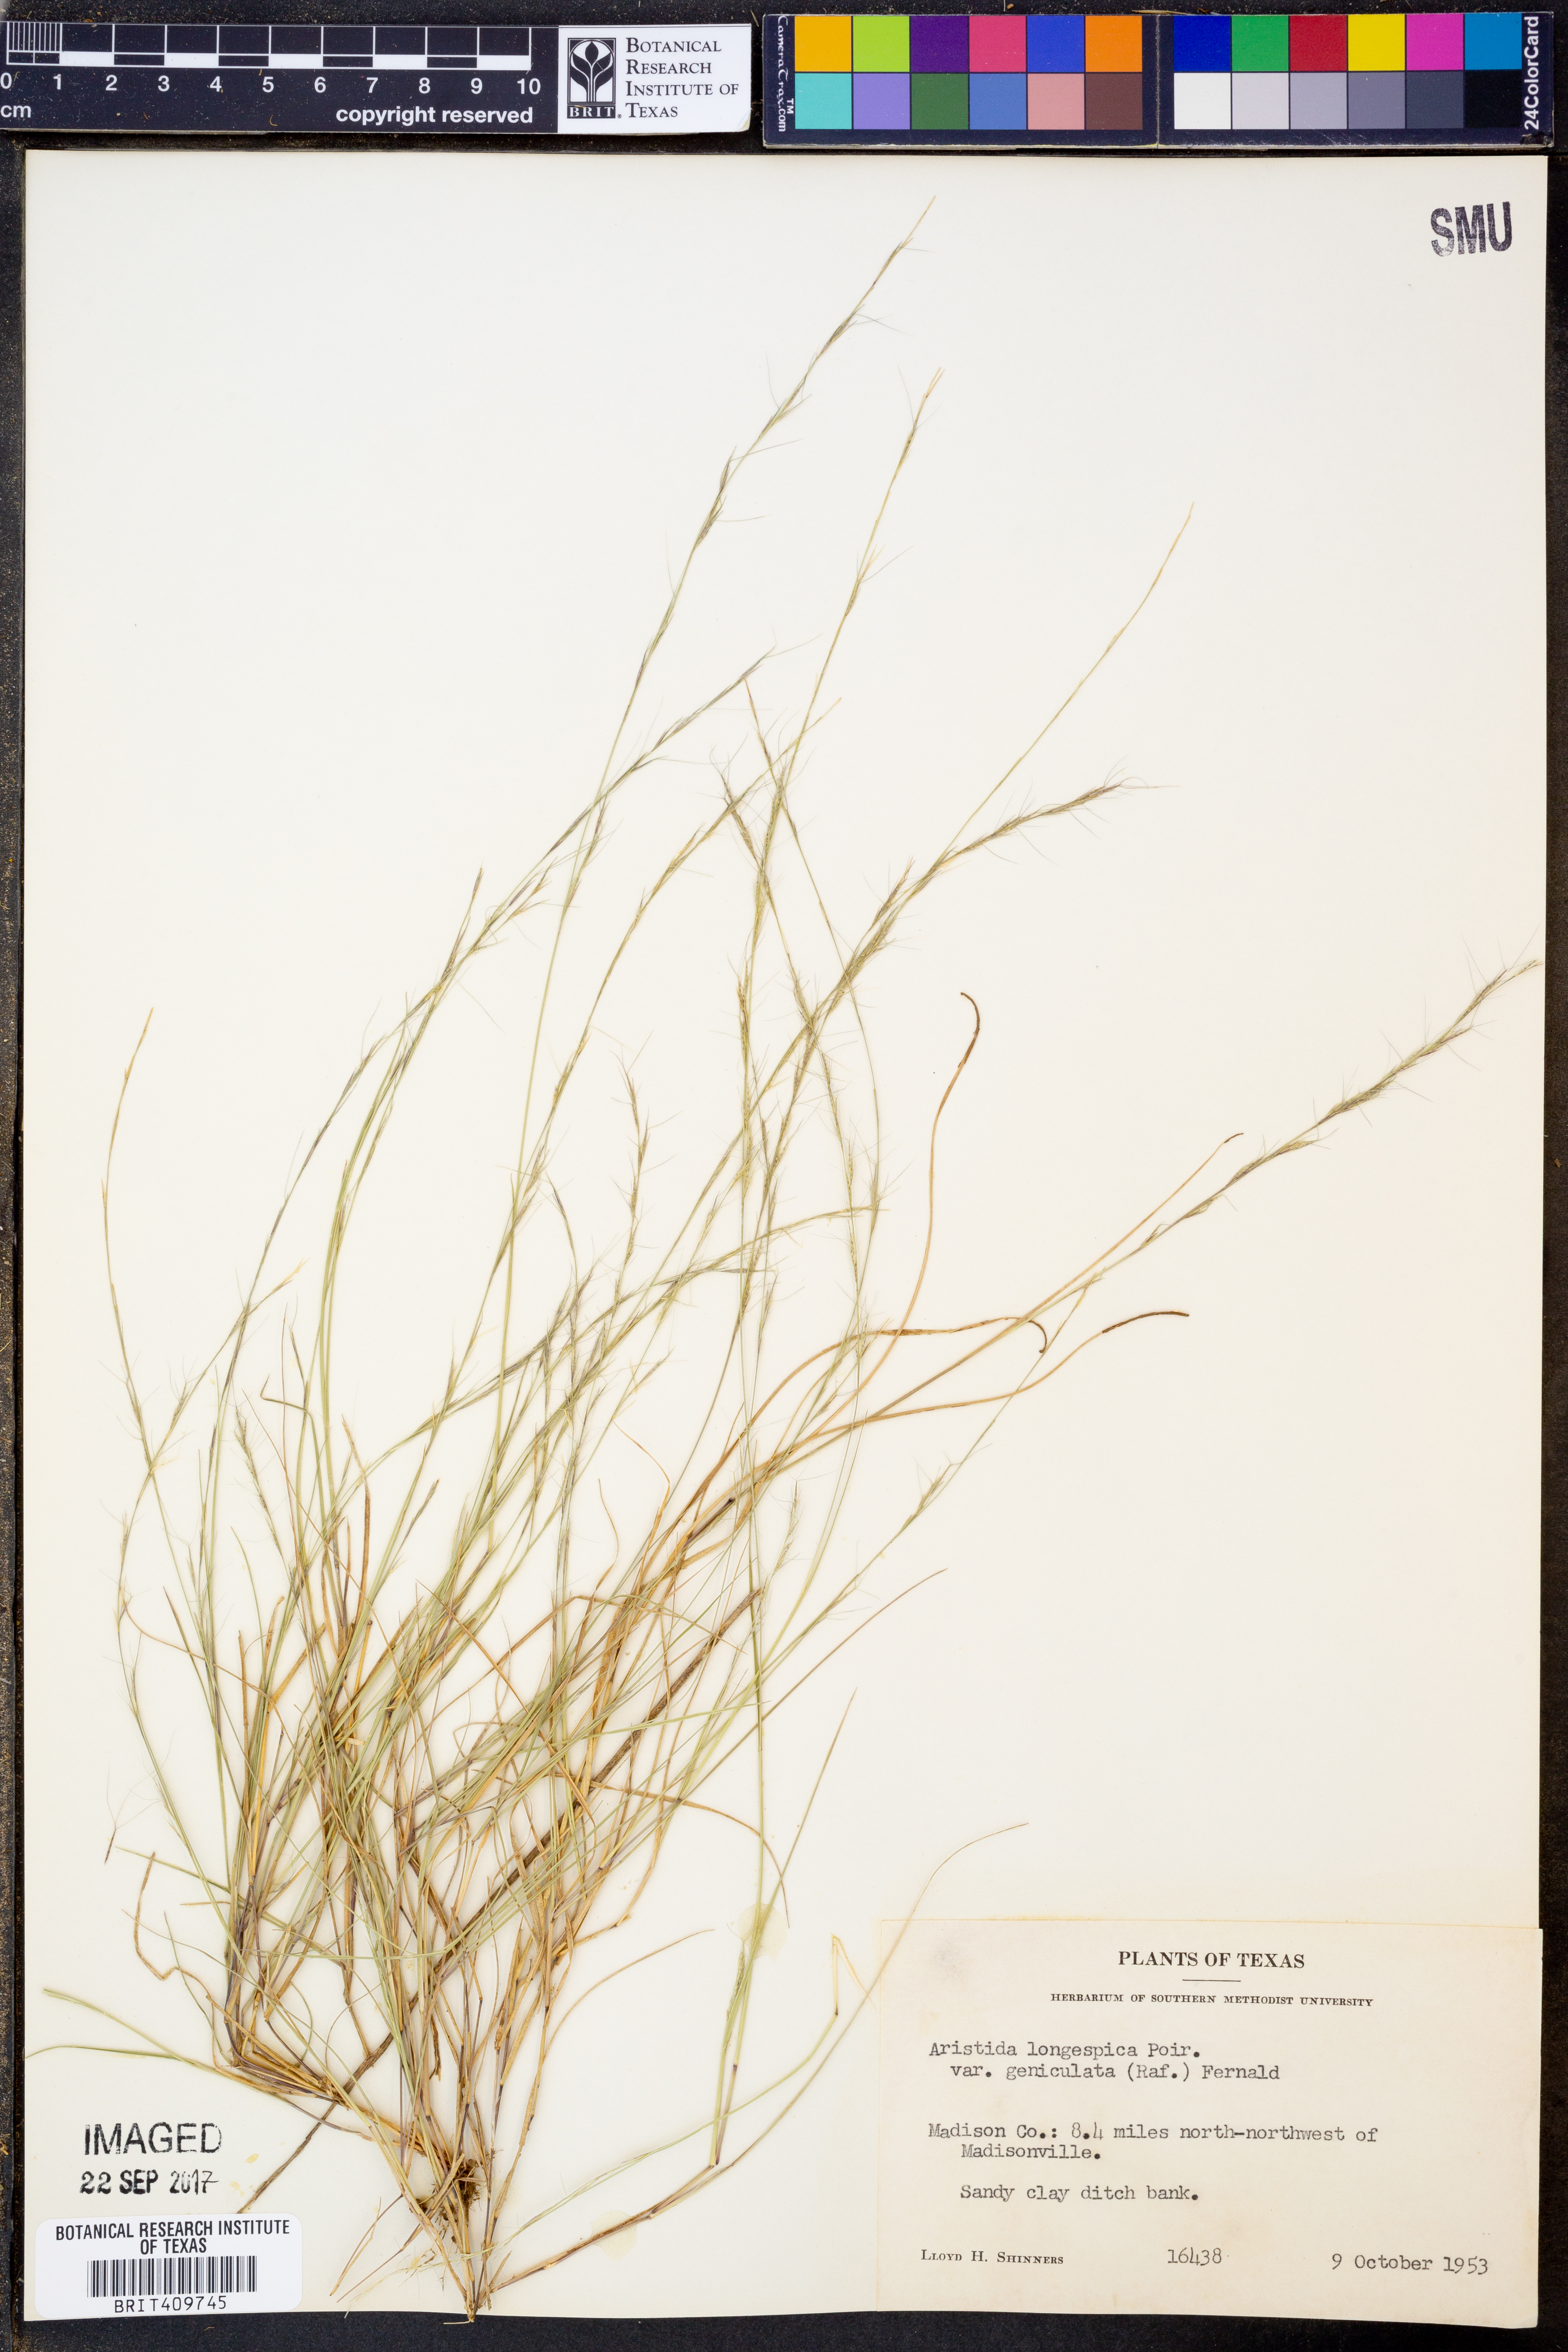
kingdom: Plantae
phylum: Tracheophyta
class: Liliopsida
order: Poales
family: Poaceae
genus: Aristida
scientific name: Aristida longespica
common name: Long-spiked triple-awned grass
